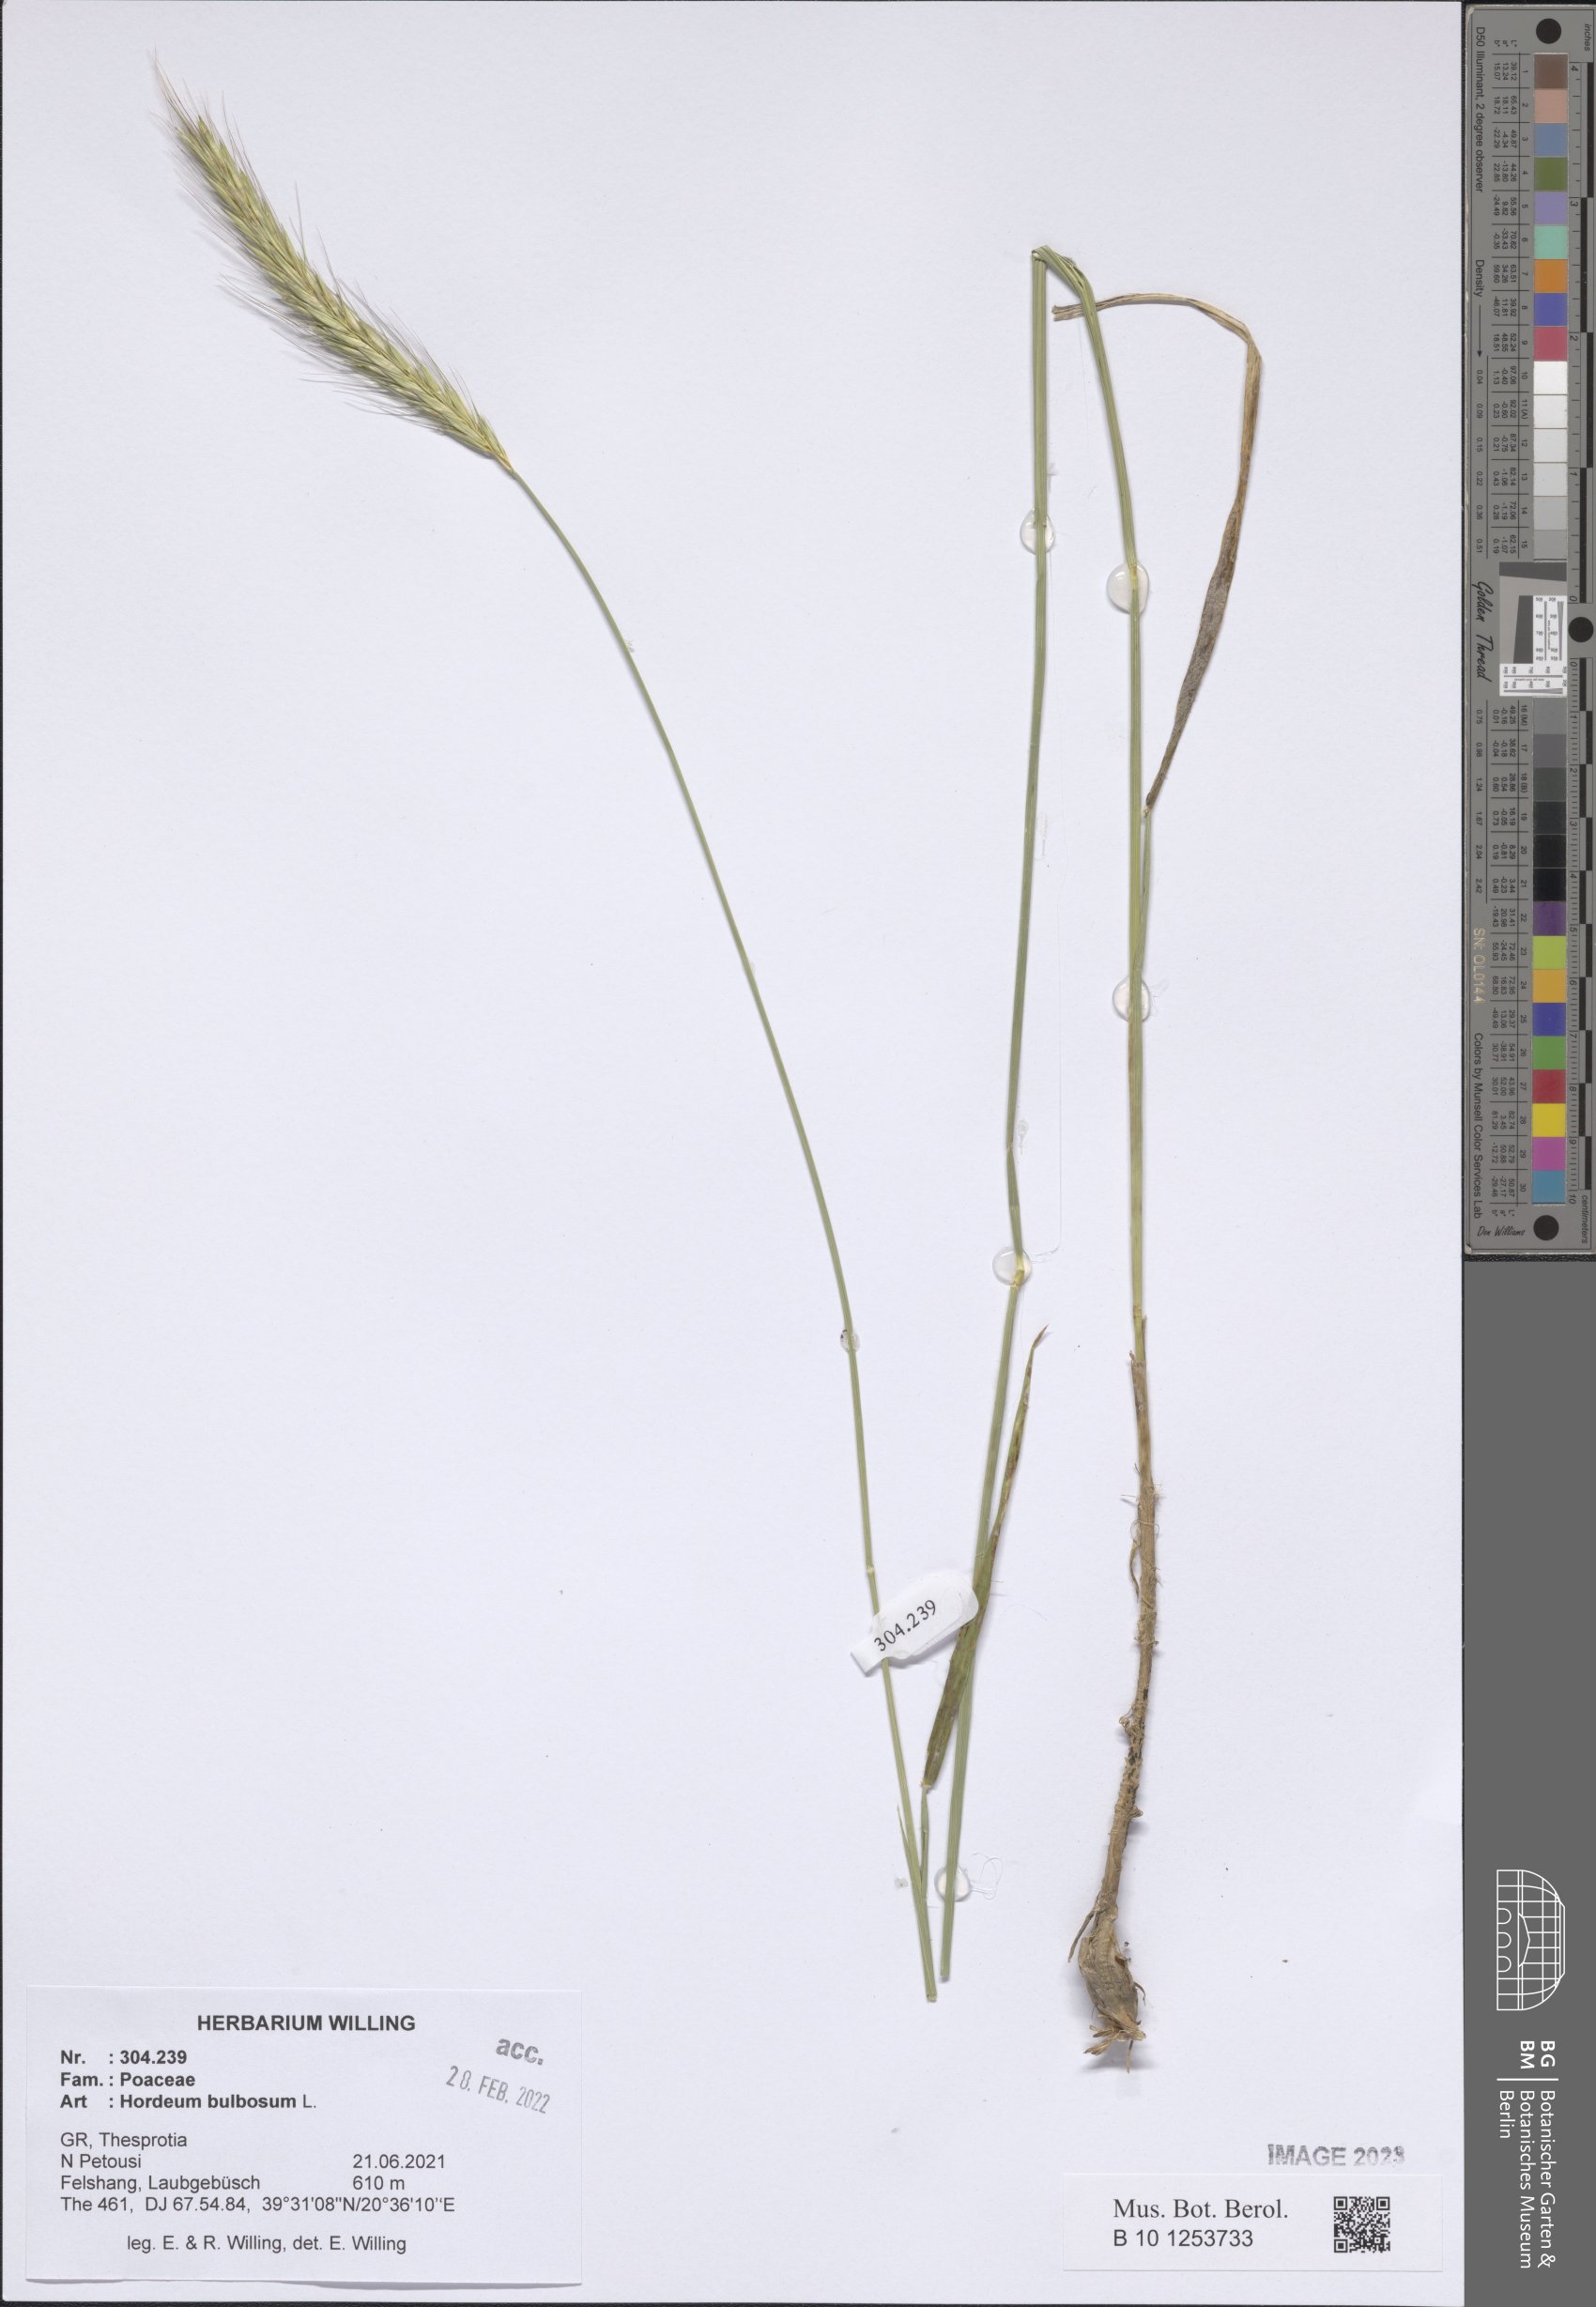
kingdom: Plantae
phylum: Tracheophyta
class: Liliopsida
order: Poales
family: Poaceae
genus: Hordeum
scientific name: Hordeum bulbosum
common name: Bulbous barley
